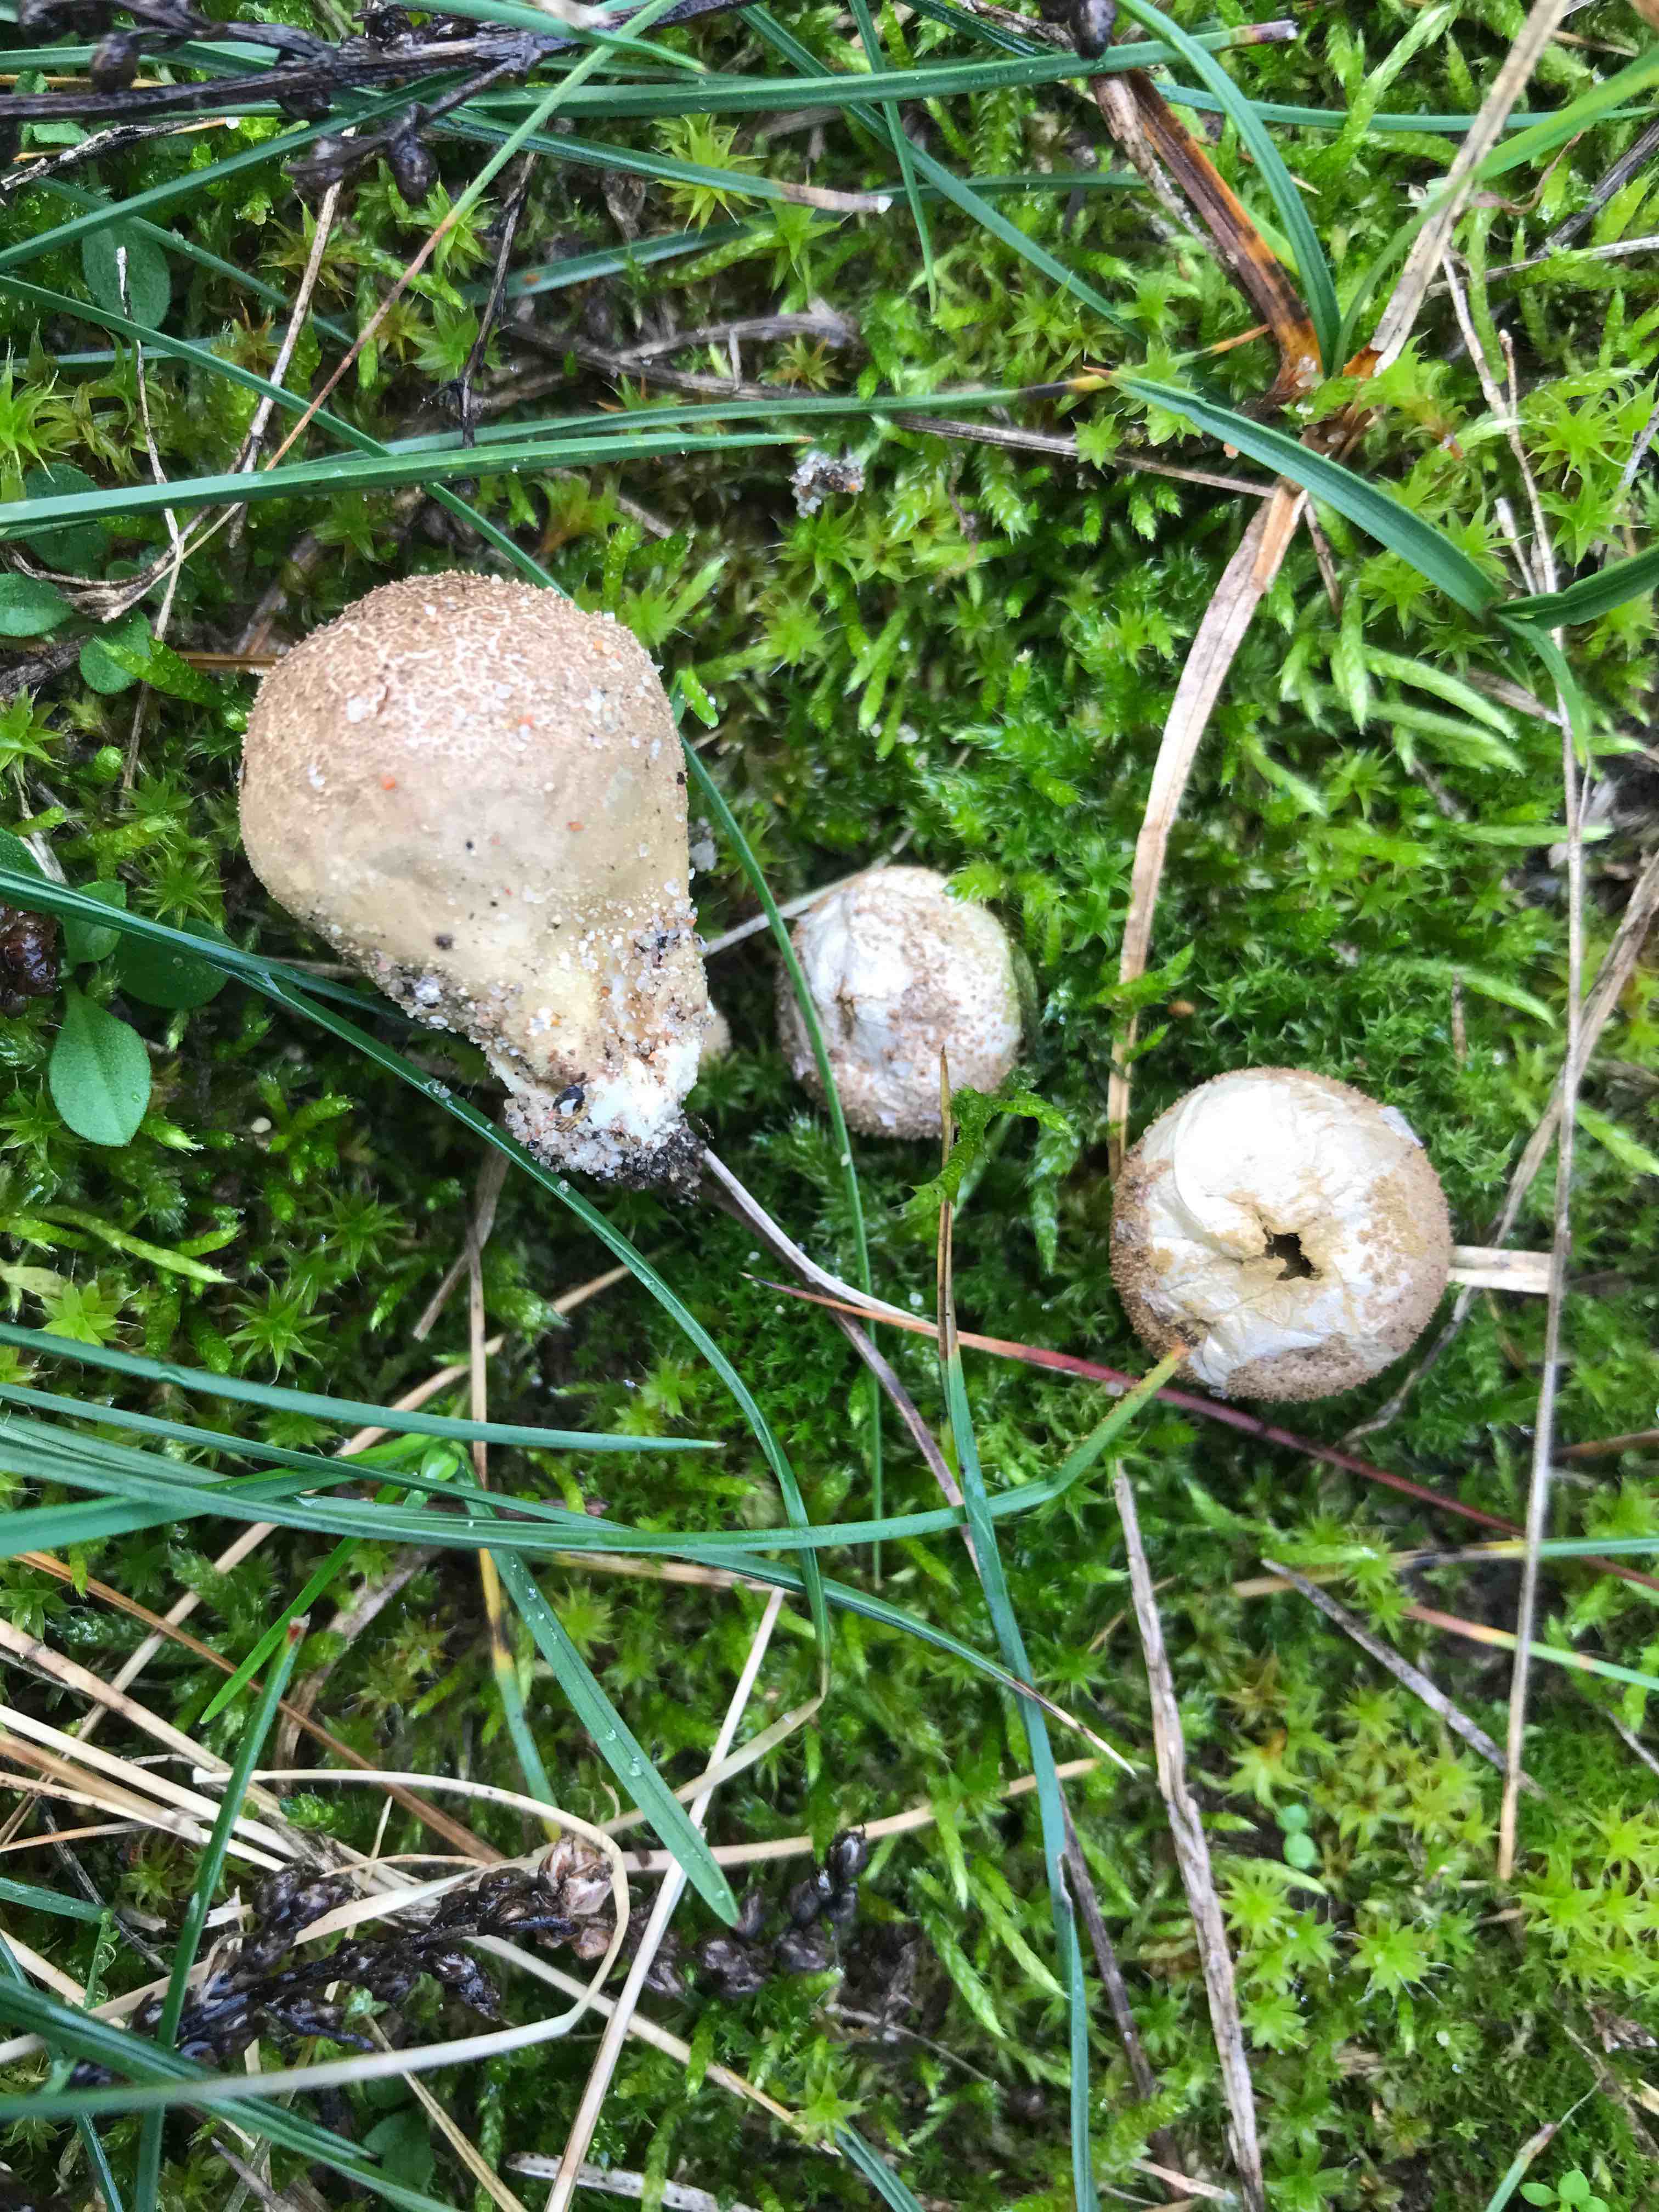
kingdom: Fungi
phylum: Basidiomycota
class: Agaricomycetes
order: Agaricales
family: Lycoperdaceae
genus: Lycoperdon
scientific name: Lycoperdon lividum
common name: mark-støvbold
